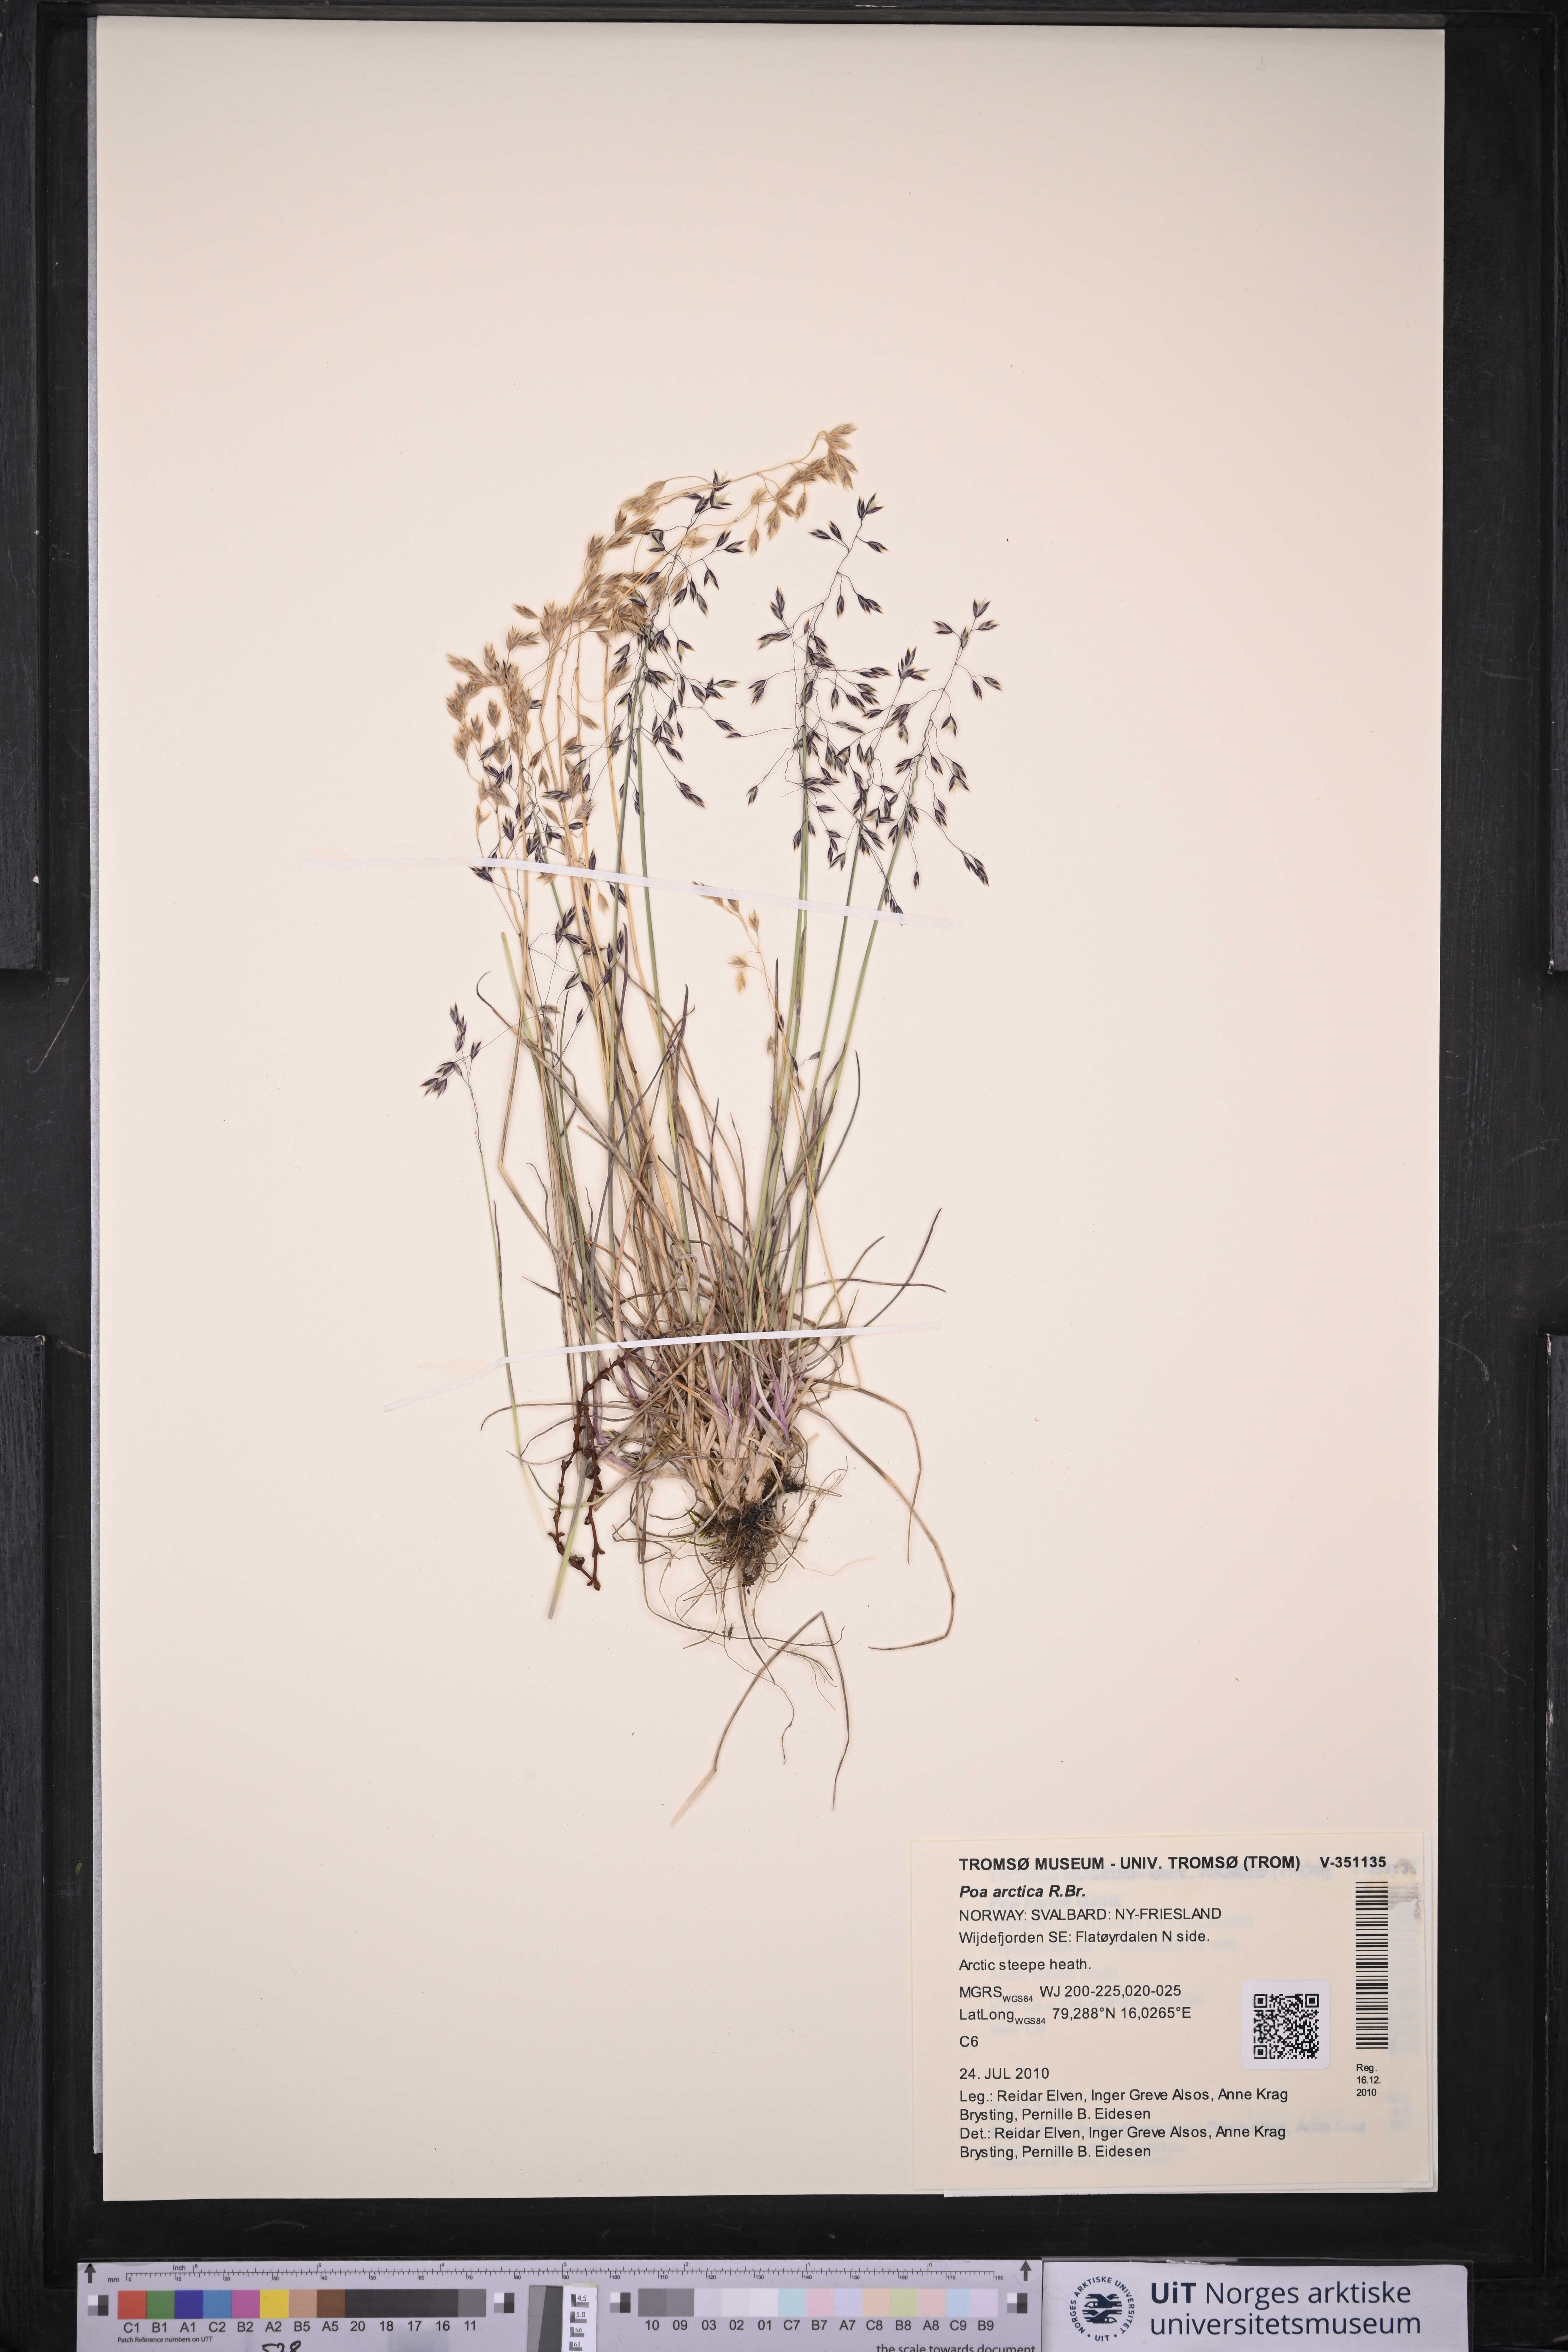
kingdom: Plantae
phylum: Tracheophyta
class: Liliopsida
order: Poales
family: Poaceae
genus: Poa
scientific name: Poa arctica
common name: Arctic bluegrass
